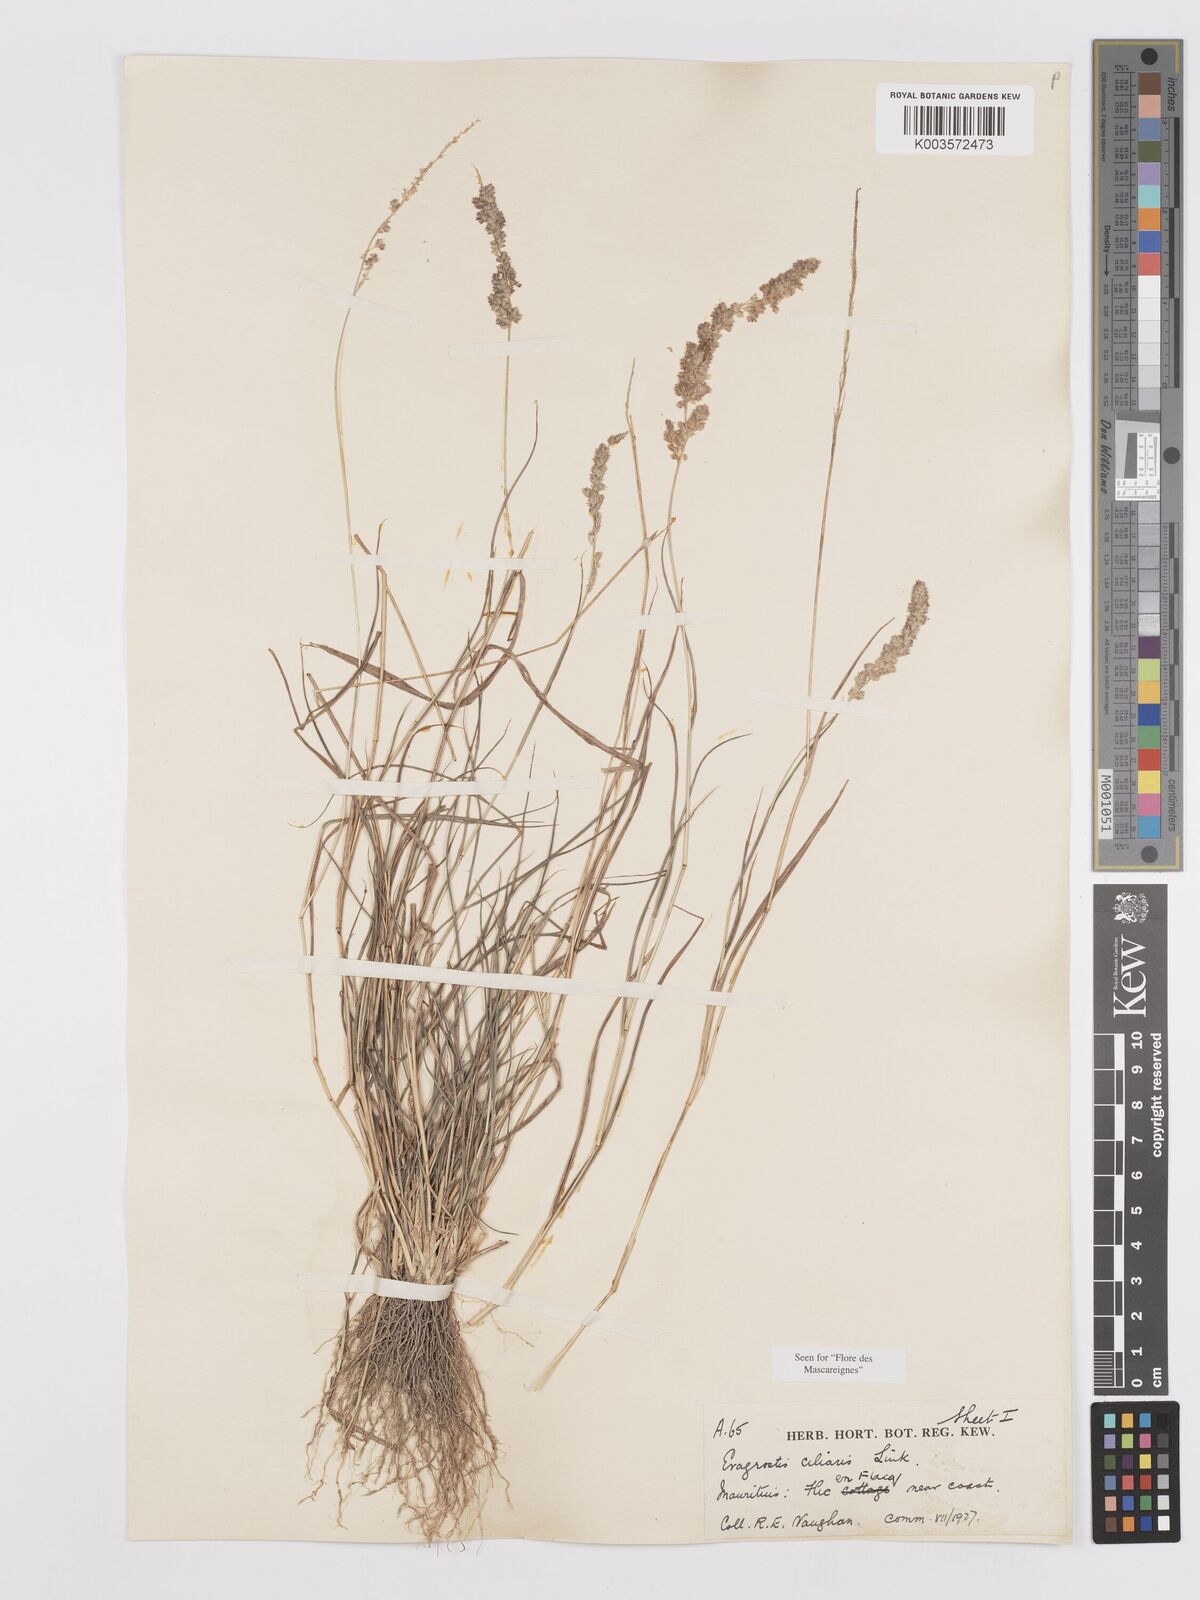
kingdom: Plantae
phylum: Tracheophyta
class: Liliopsida
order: Poales
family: Poaceae
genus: Eragrostis
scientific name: Eragrostis ciliaris
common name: Gophertail lovegrass
